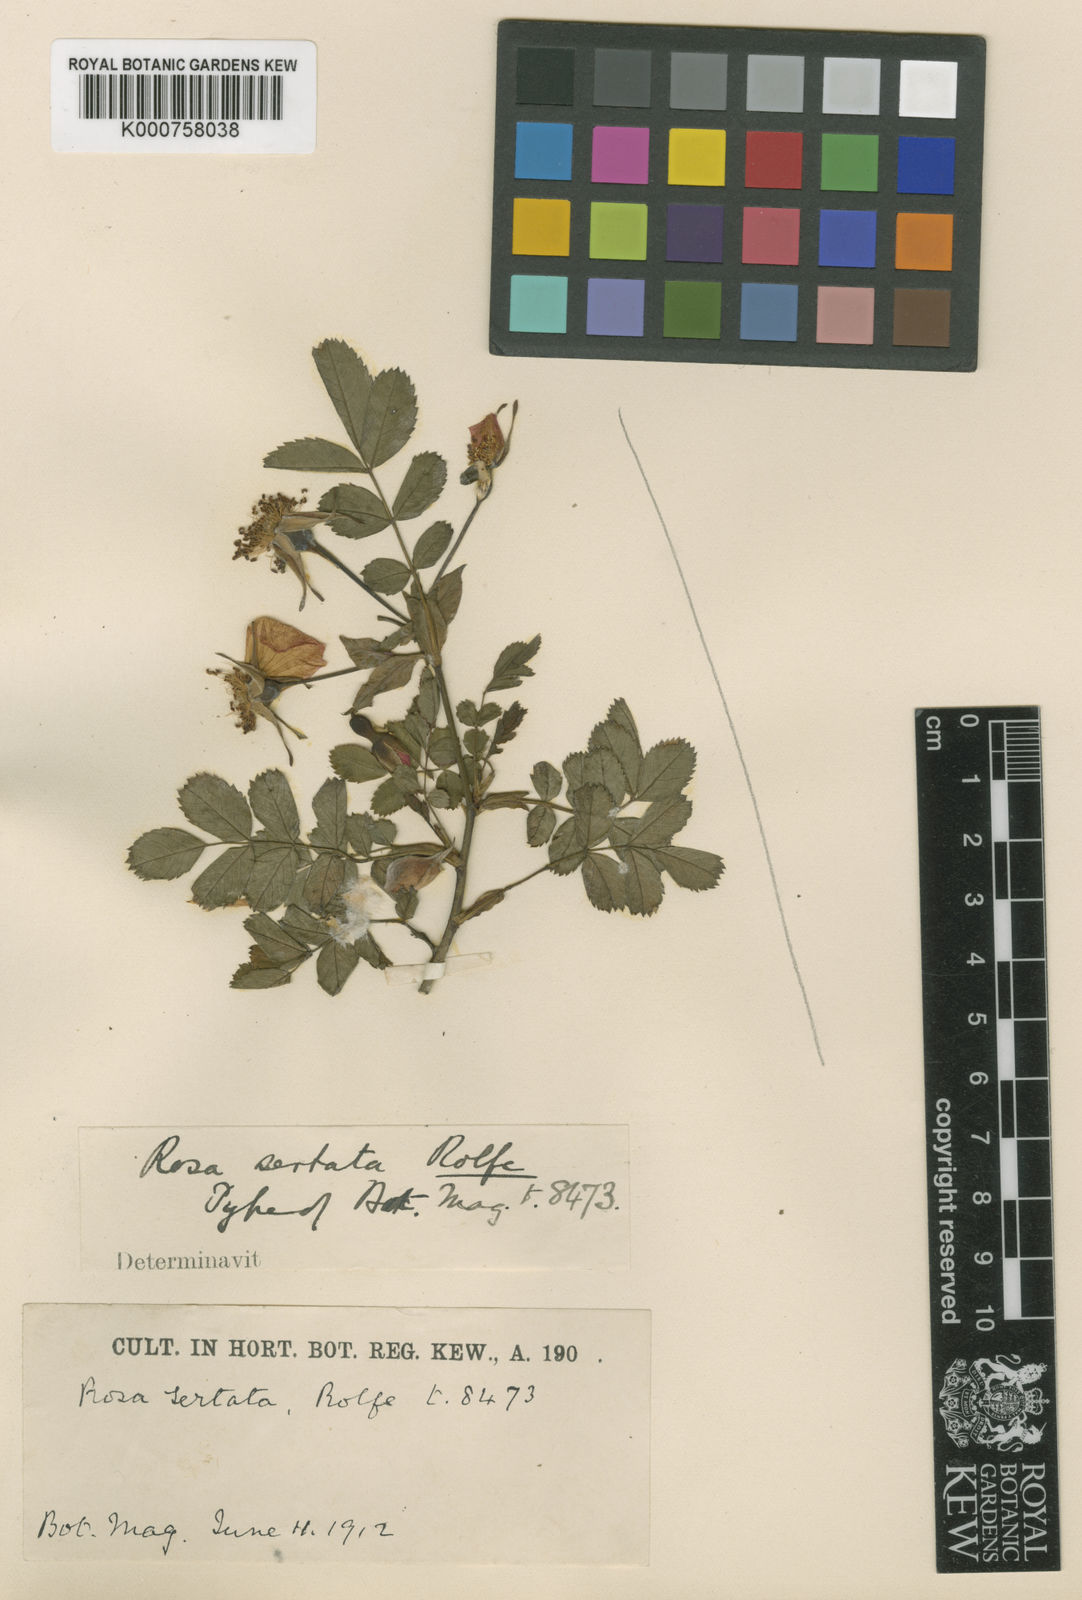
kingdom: Plantae
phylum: Tracheophyta
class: Magnoliopsida
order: Rosales
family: Rosaceae
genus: Rosa
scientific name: Rosa sertata
